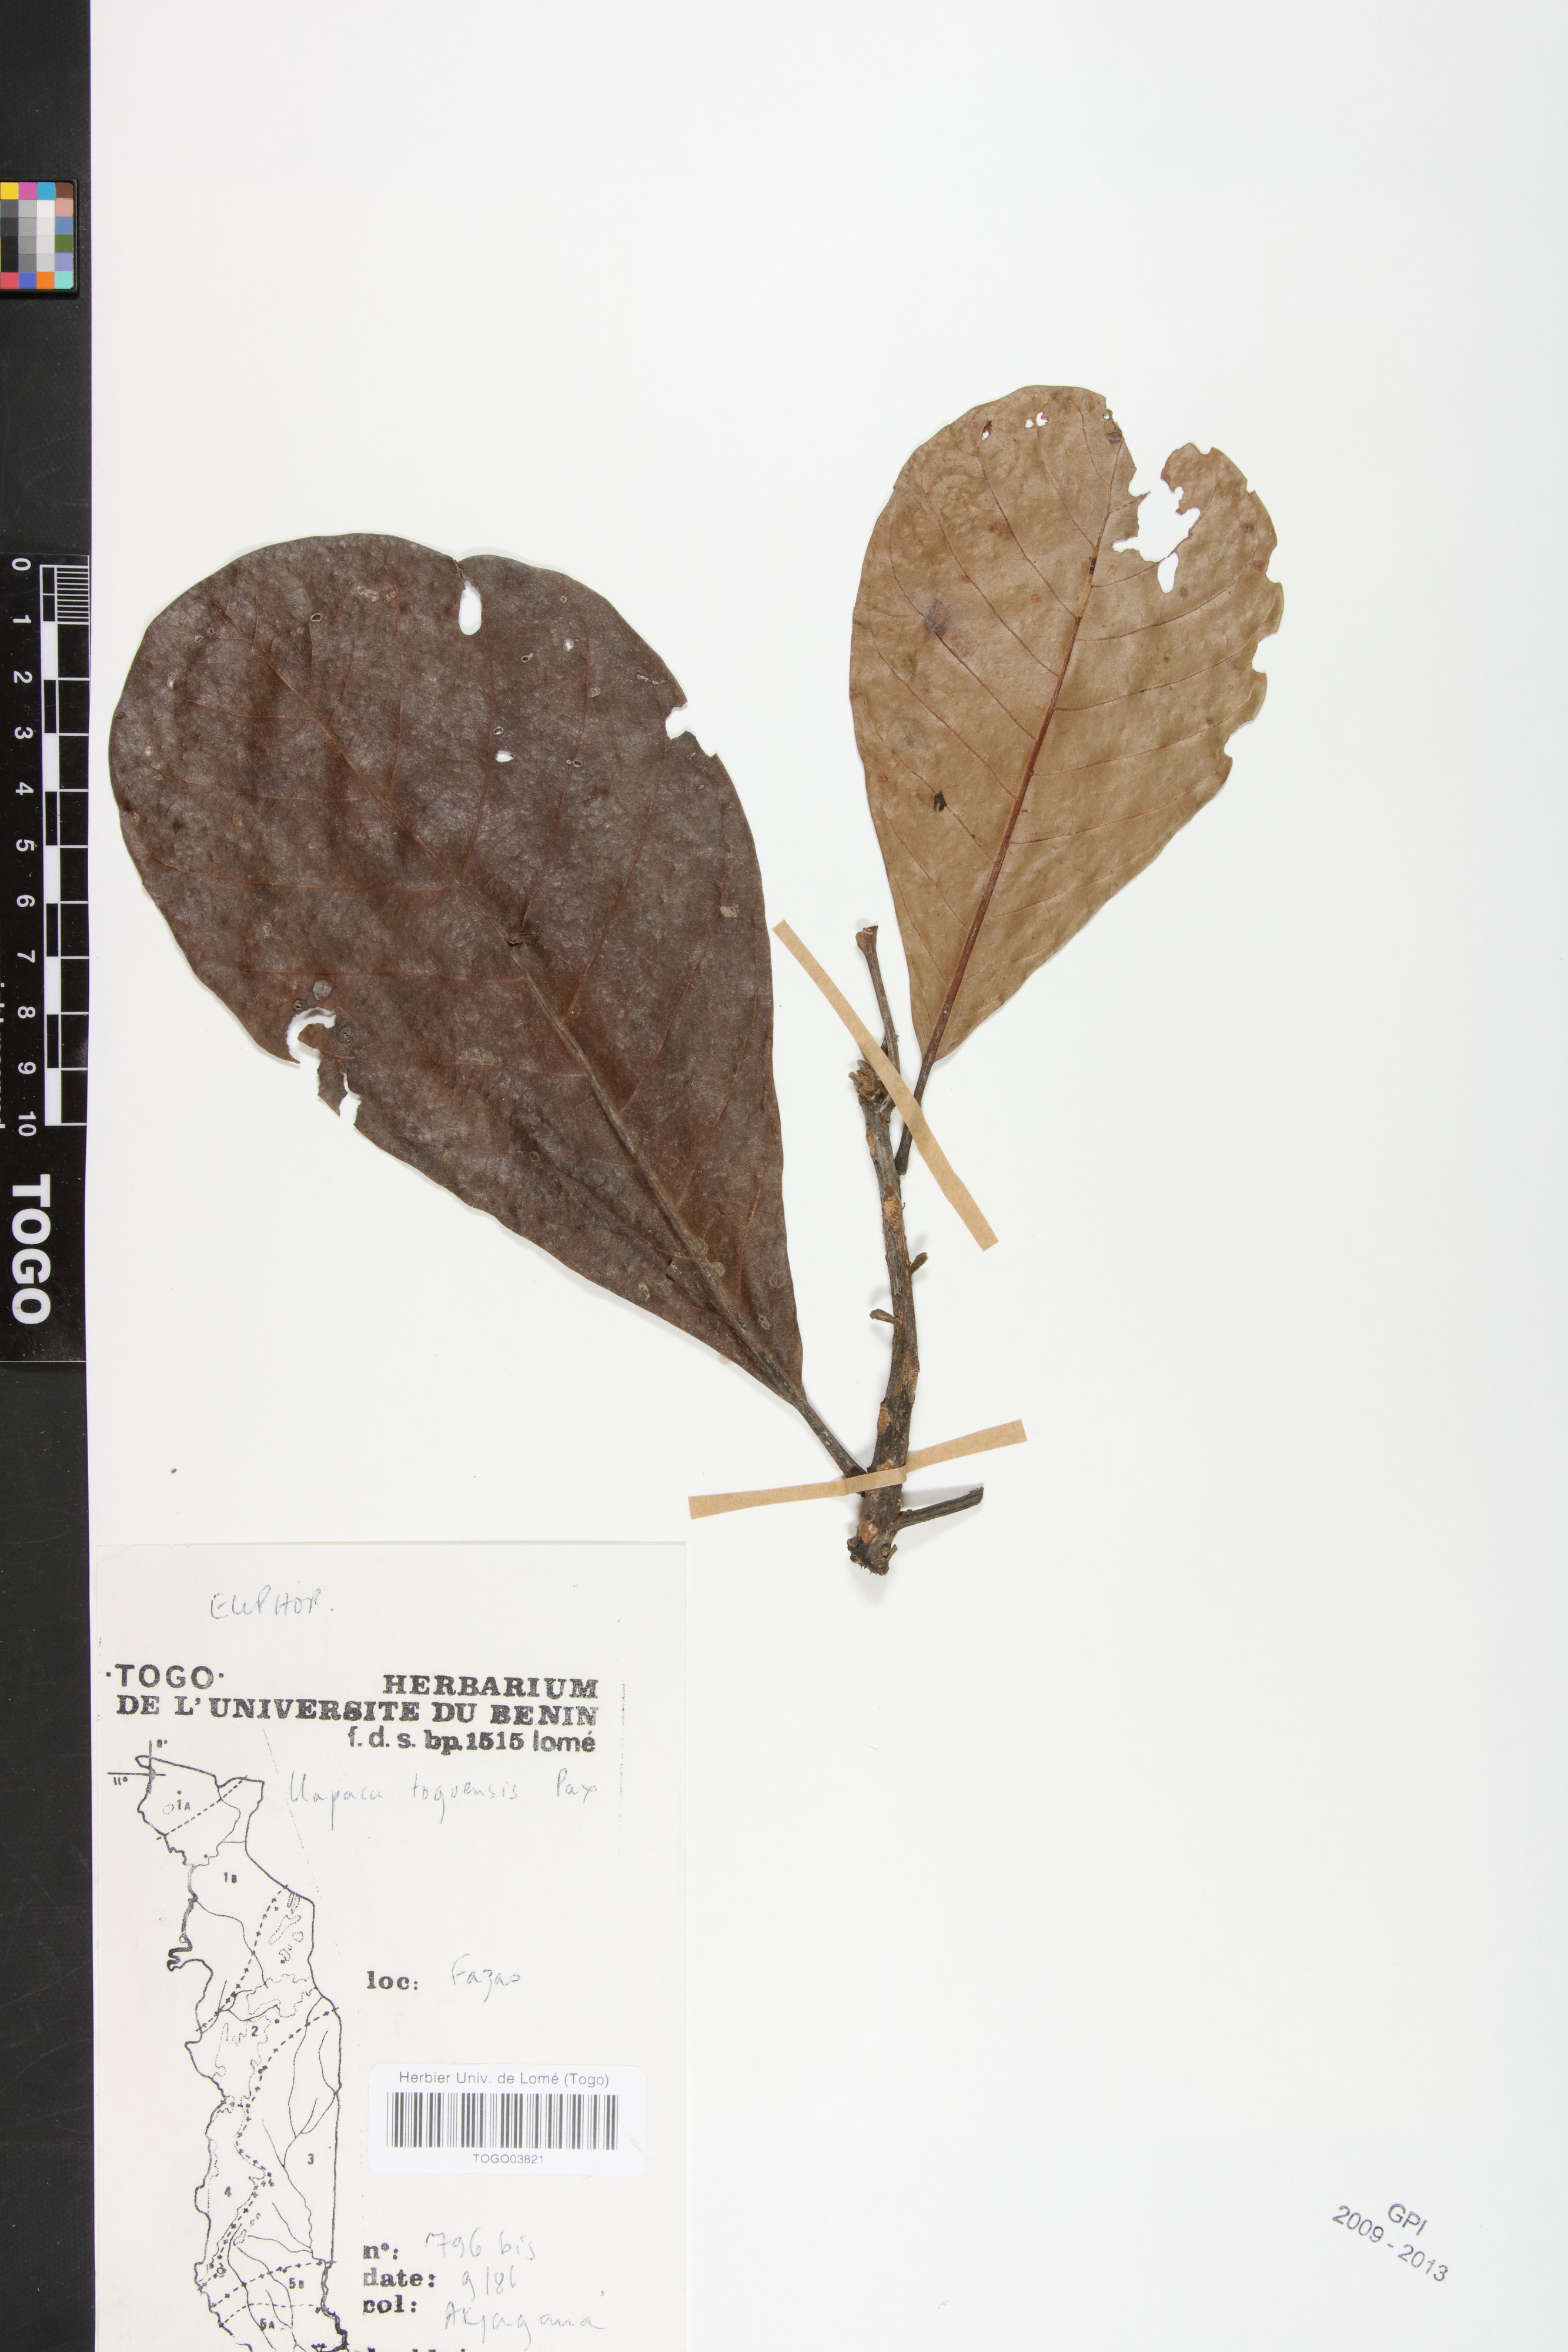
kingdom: Plantae
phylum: Tracheophyta
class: Magnoliopsida
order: Malpighiales
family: Phyllanthaceae
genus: Uapaca
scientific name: Uapaca togoensis
